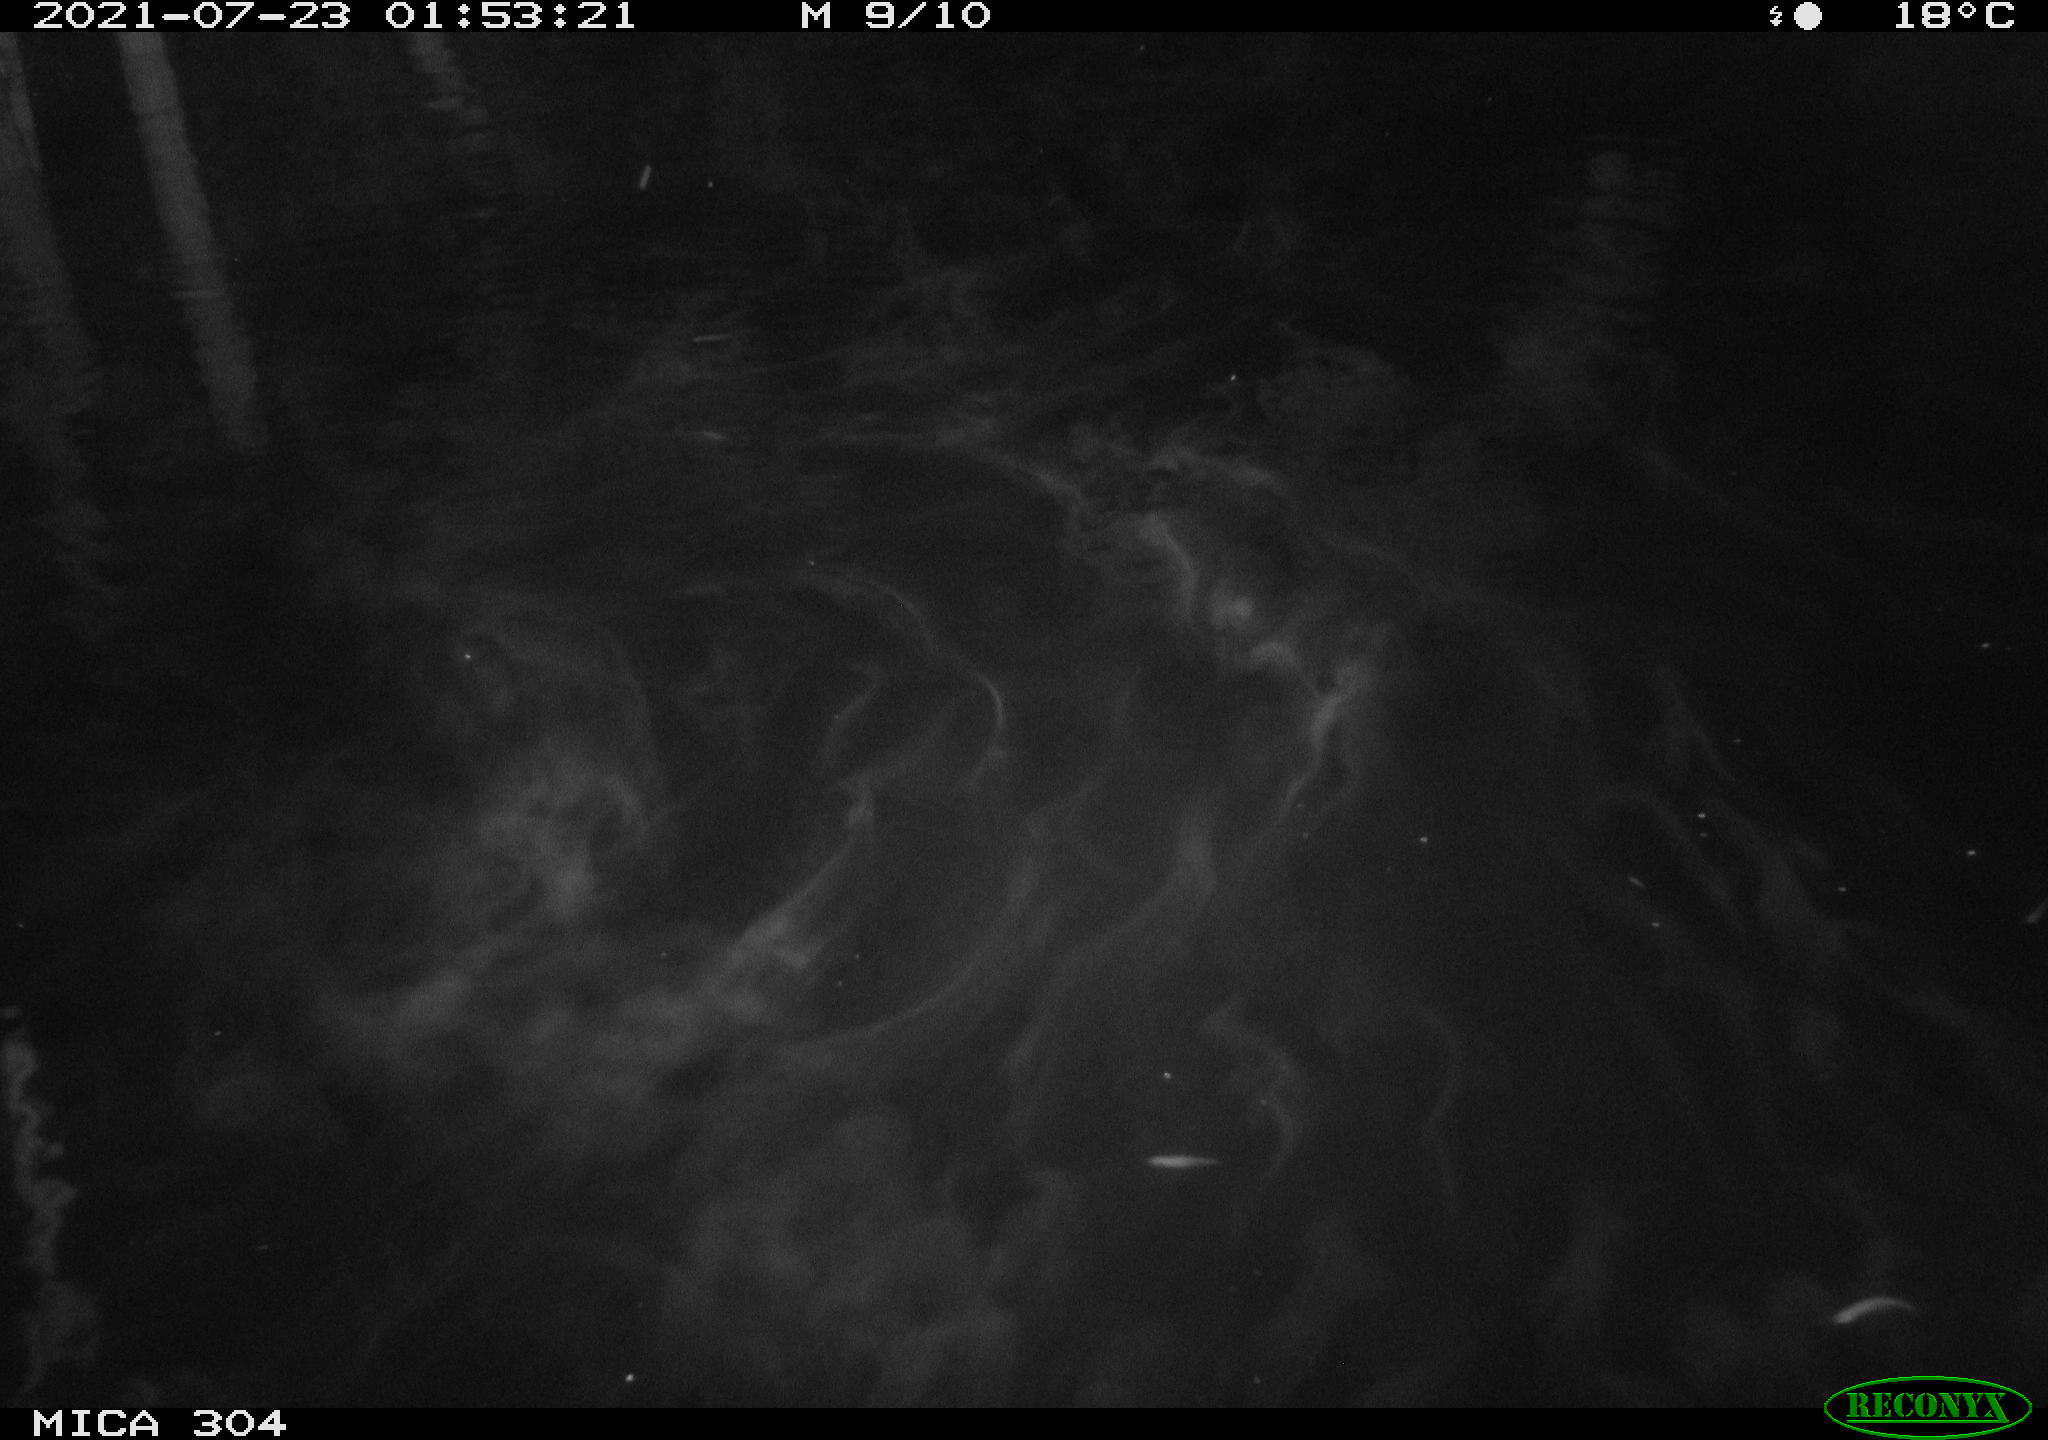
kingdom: Animalia
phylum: Chordata
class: Aves
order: Anseriformes
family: Anatidae
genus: Anas
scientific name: Anas platyrhynchos
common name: Mallard
